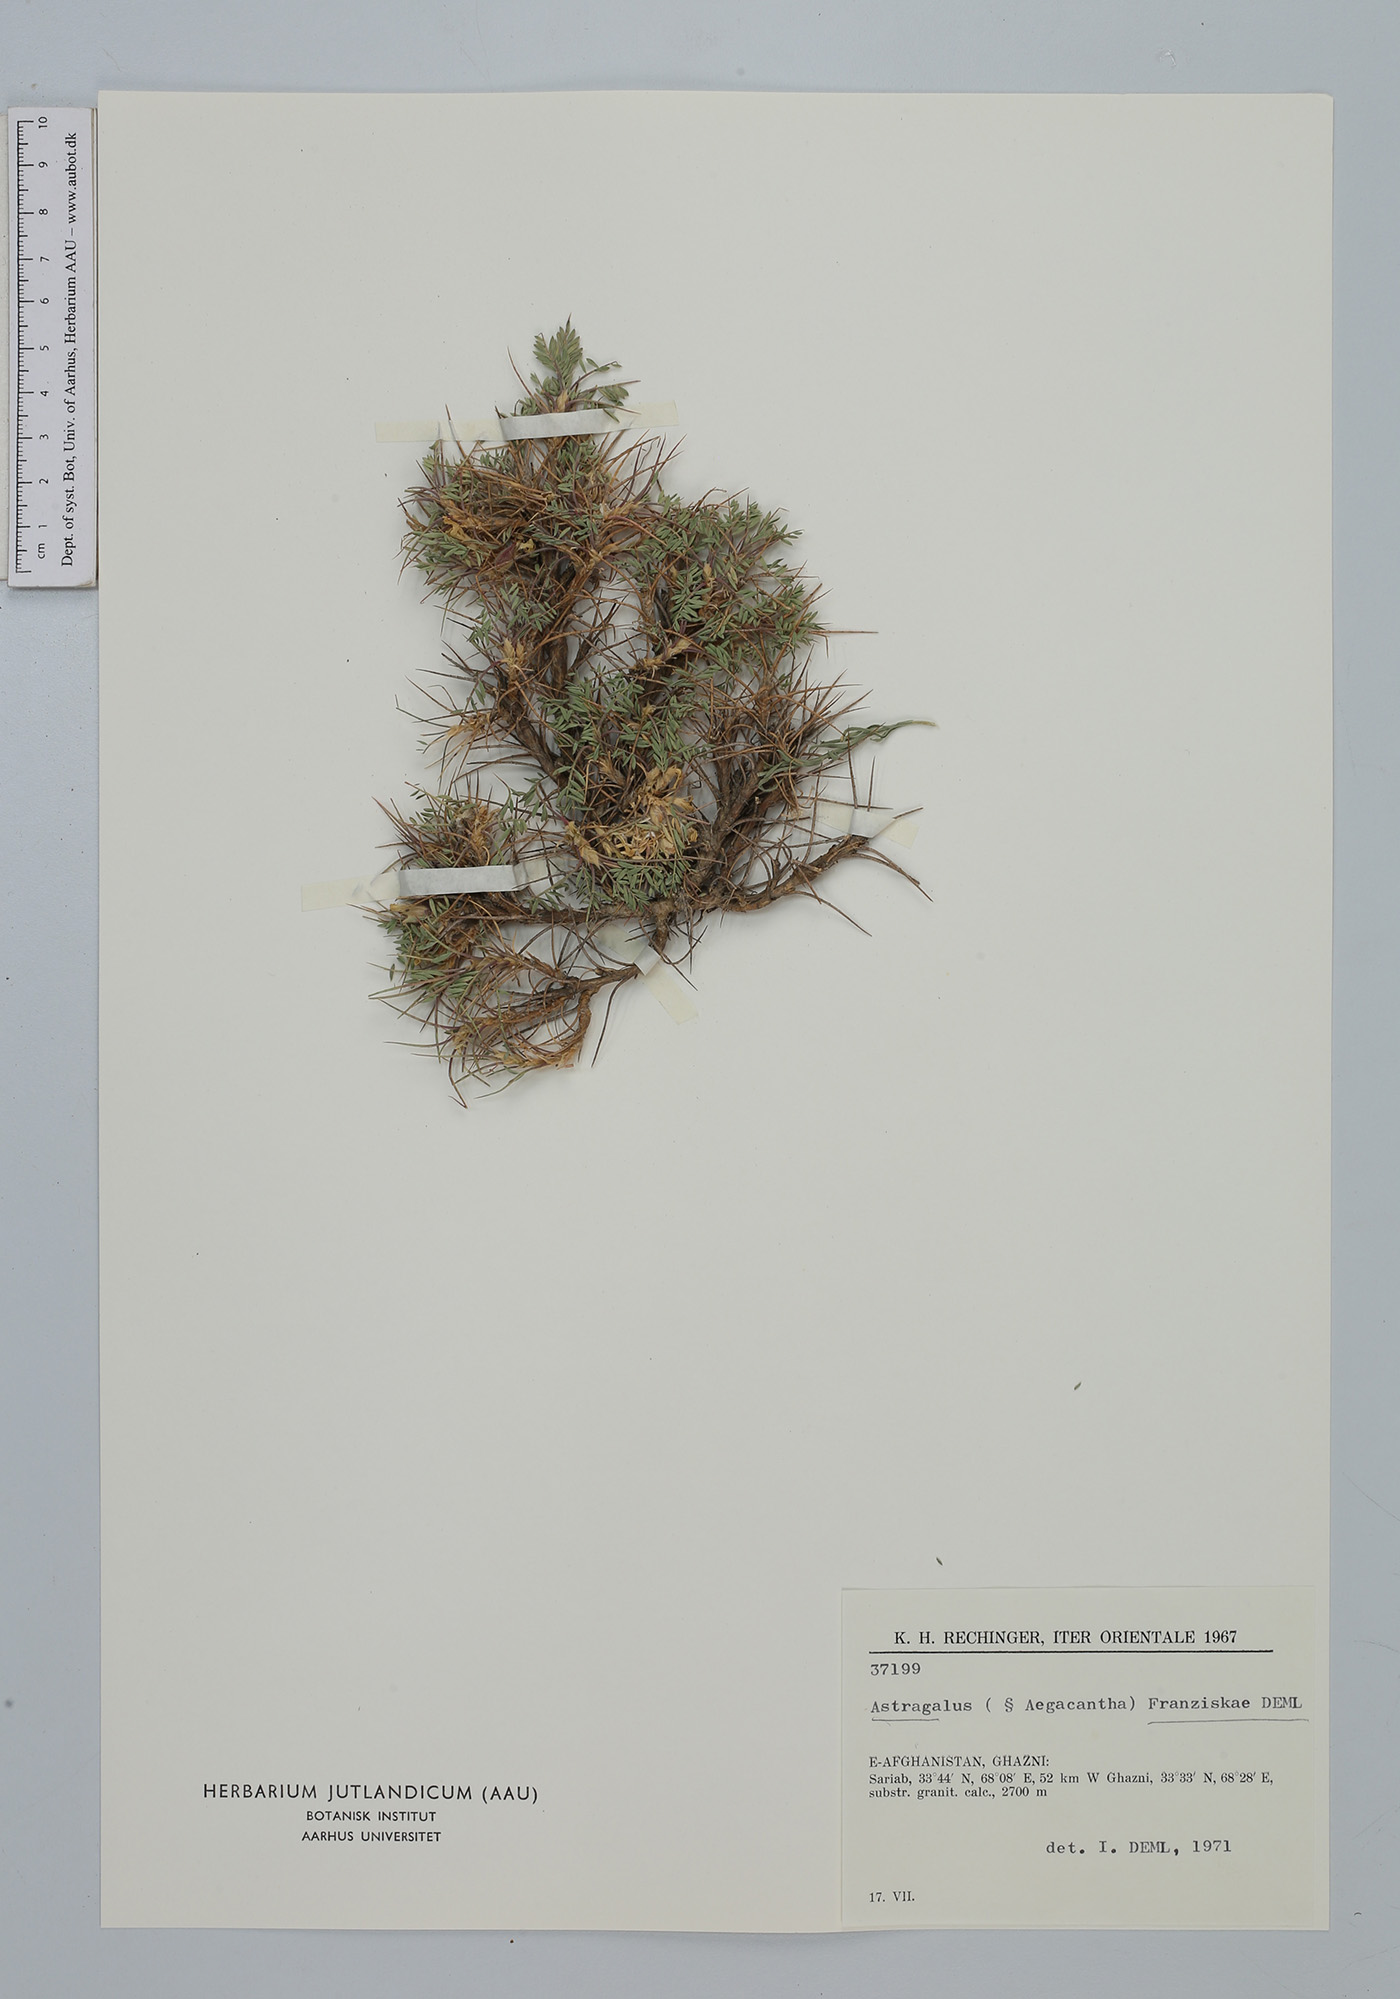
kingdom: Plantae
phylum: Tracheophyta
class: Magnoliopsida
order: Fabales
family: Fabaceae
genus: Astragalus
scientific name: Astragalus franziskae
